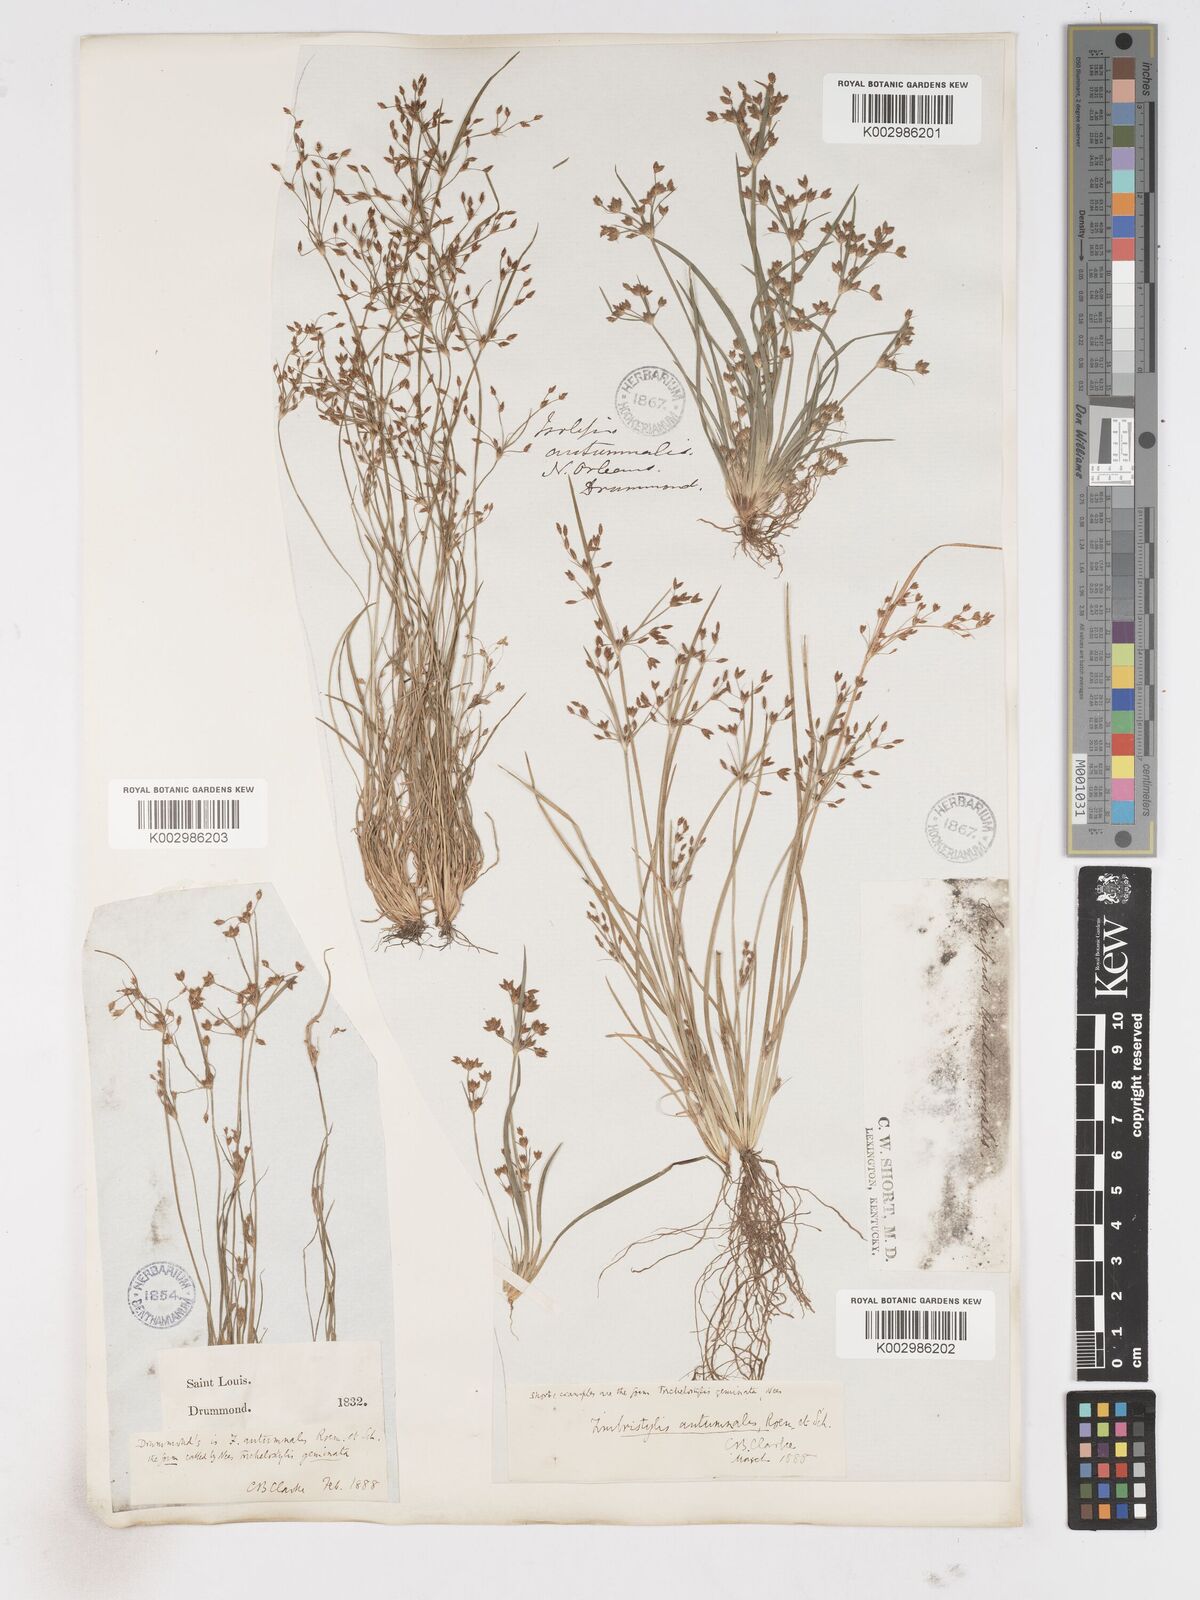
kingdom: Plantae
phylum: Tracheophyta
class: Liliopsida
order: Poales
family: Cyperaceae
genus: Fimbristylis
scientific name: Fimbristylis autumnalis
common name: Slender fimbristylis
